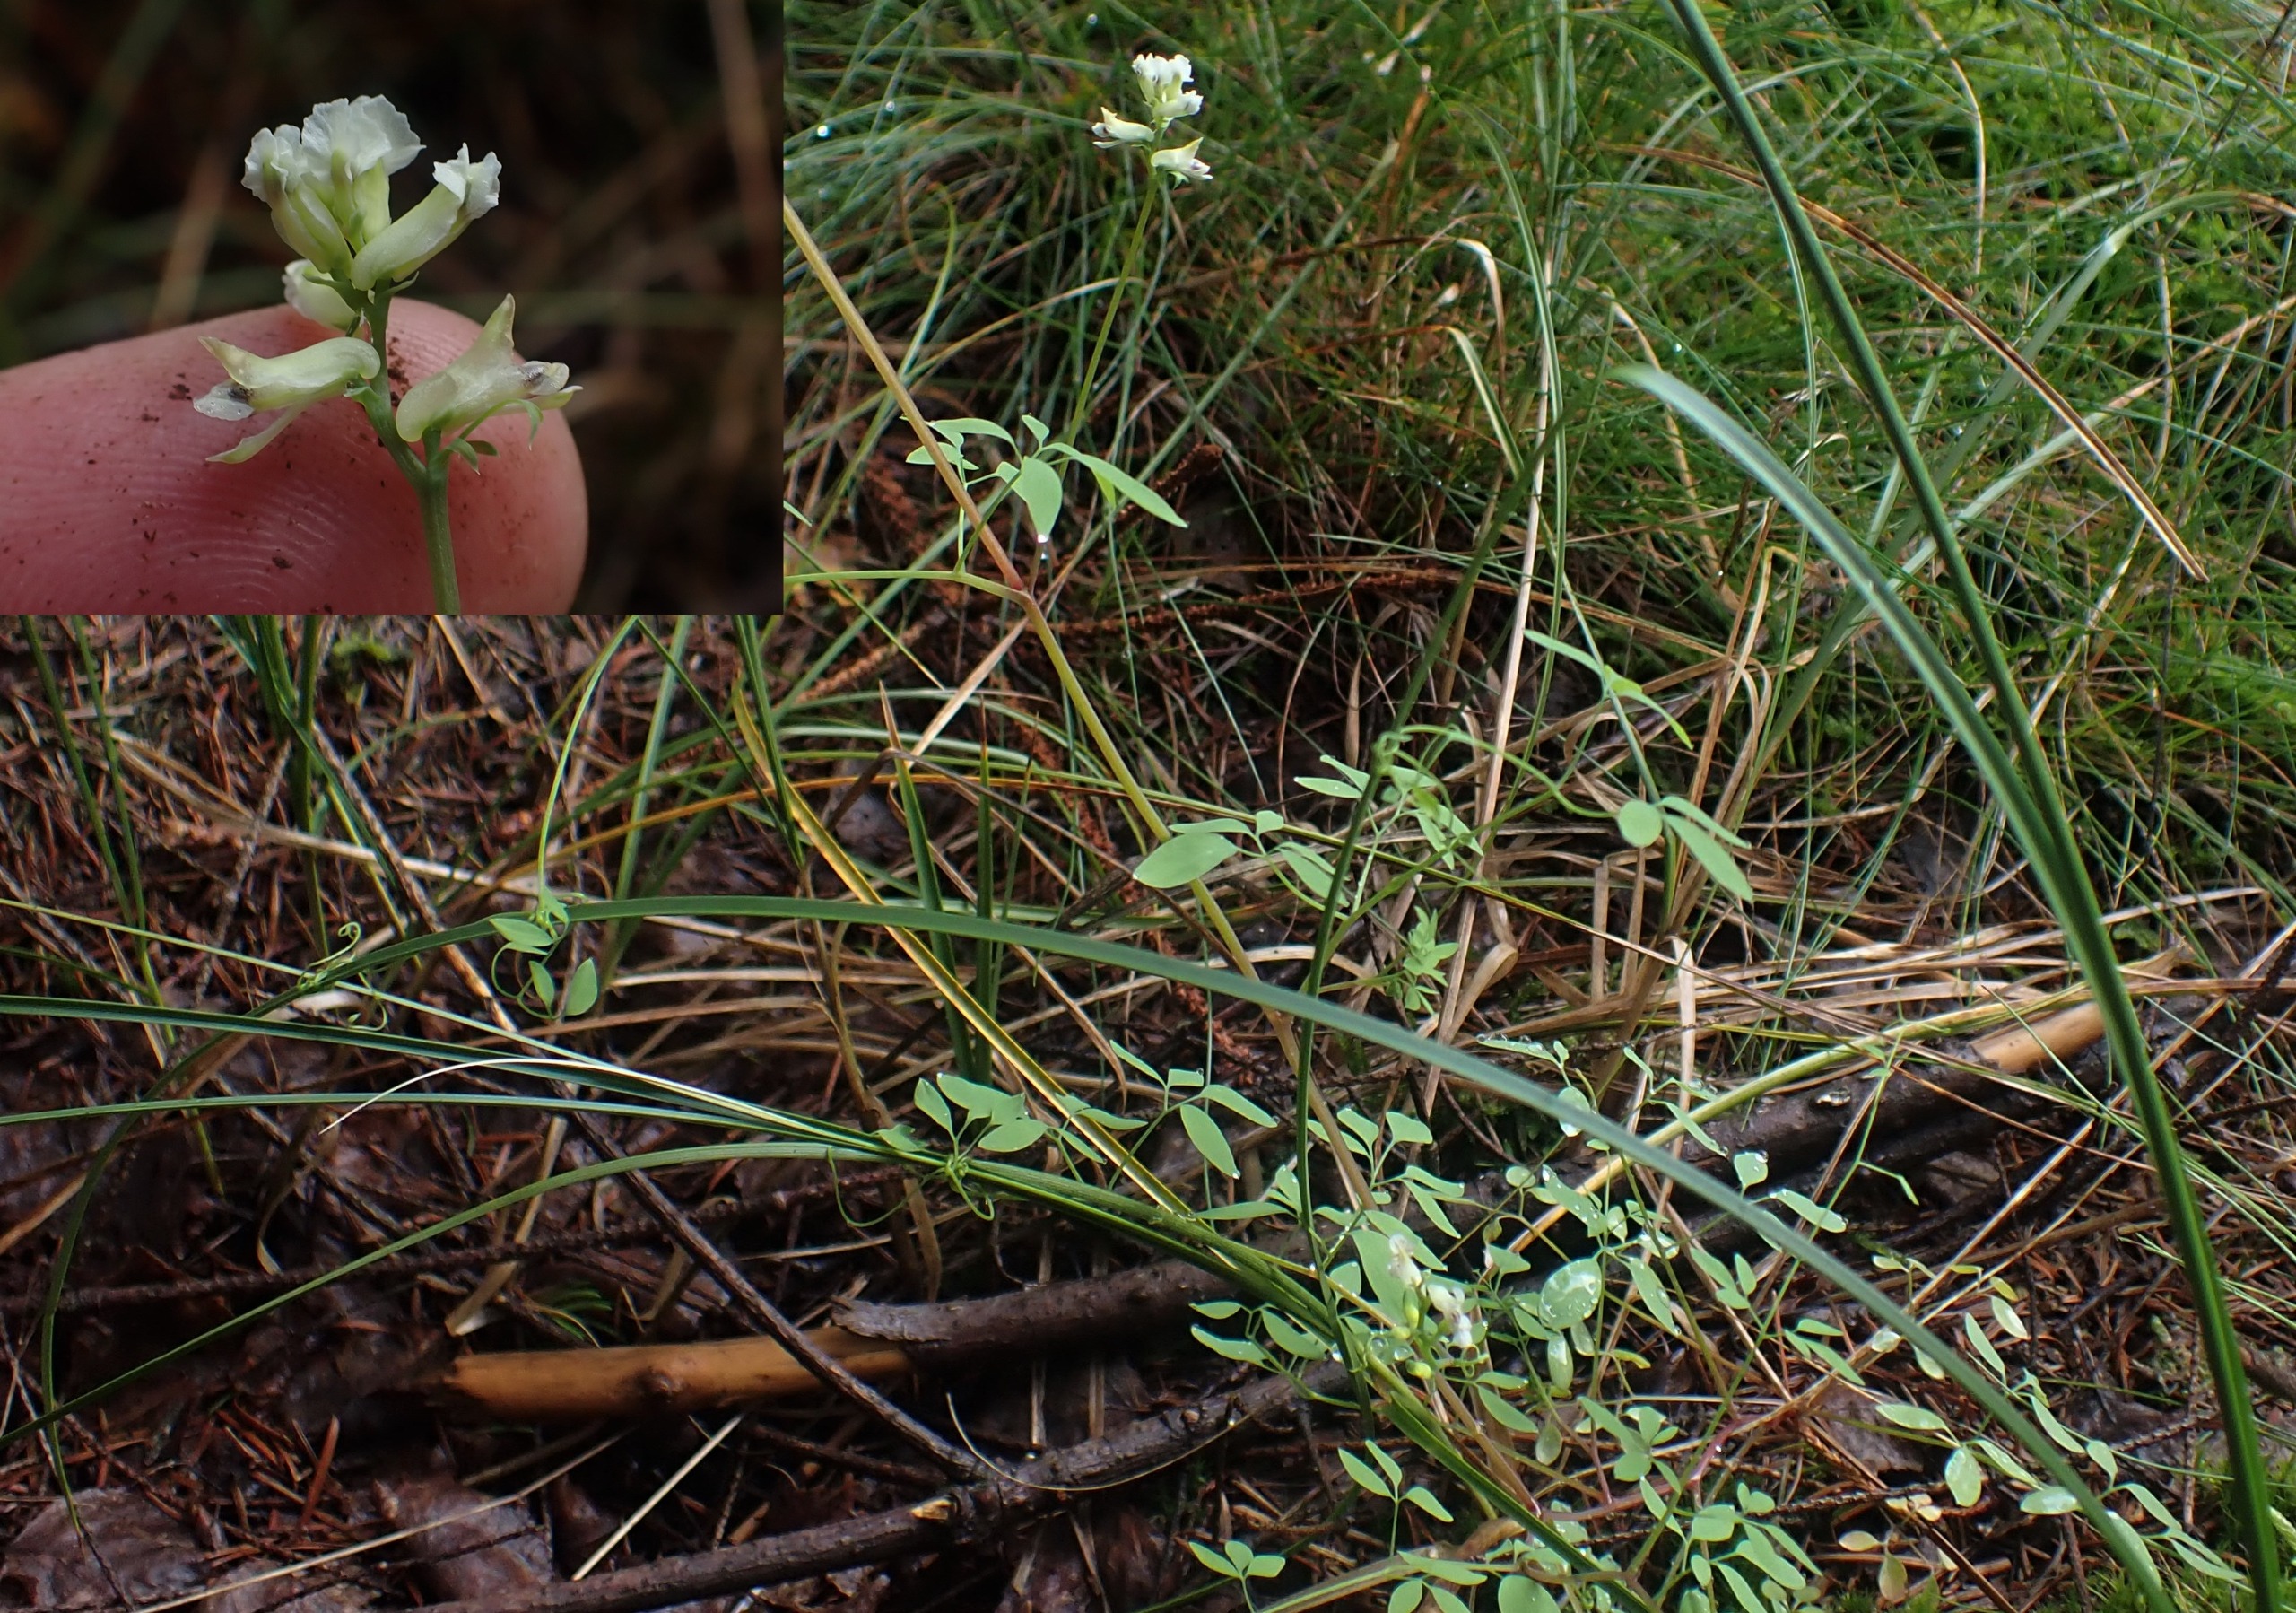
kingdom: Plantae
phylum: Tracheophyta
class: Magnoliopsida
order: Ranunculales
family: Papaveraceae
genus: Ceratocapnos
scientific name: Ceratocapnos claviculata
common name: Klatrende lærkespore
